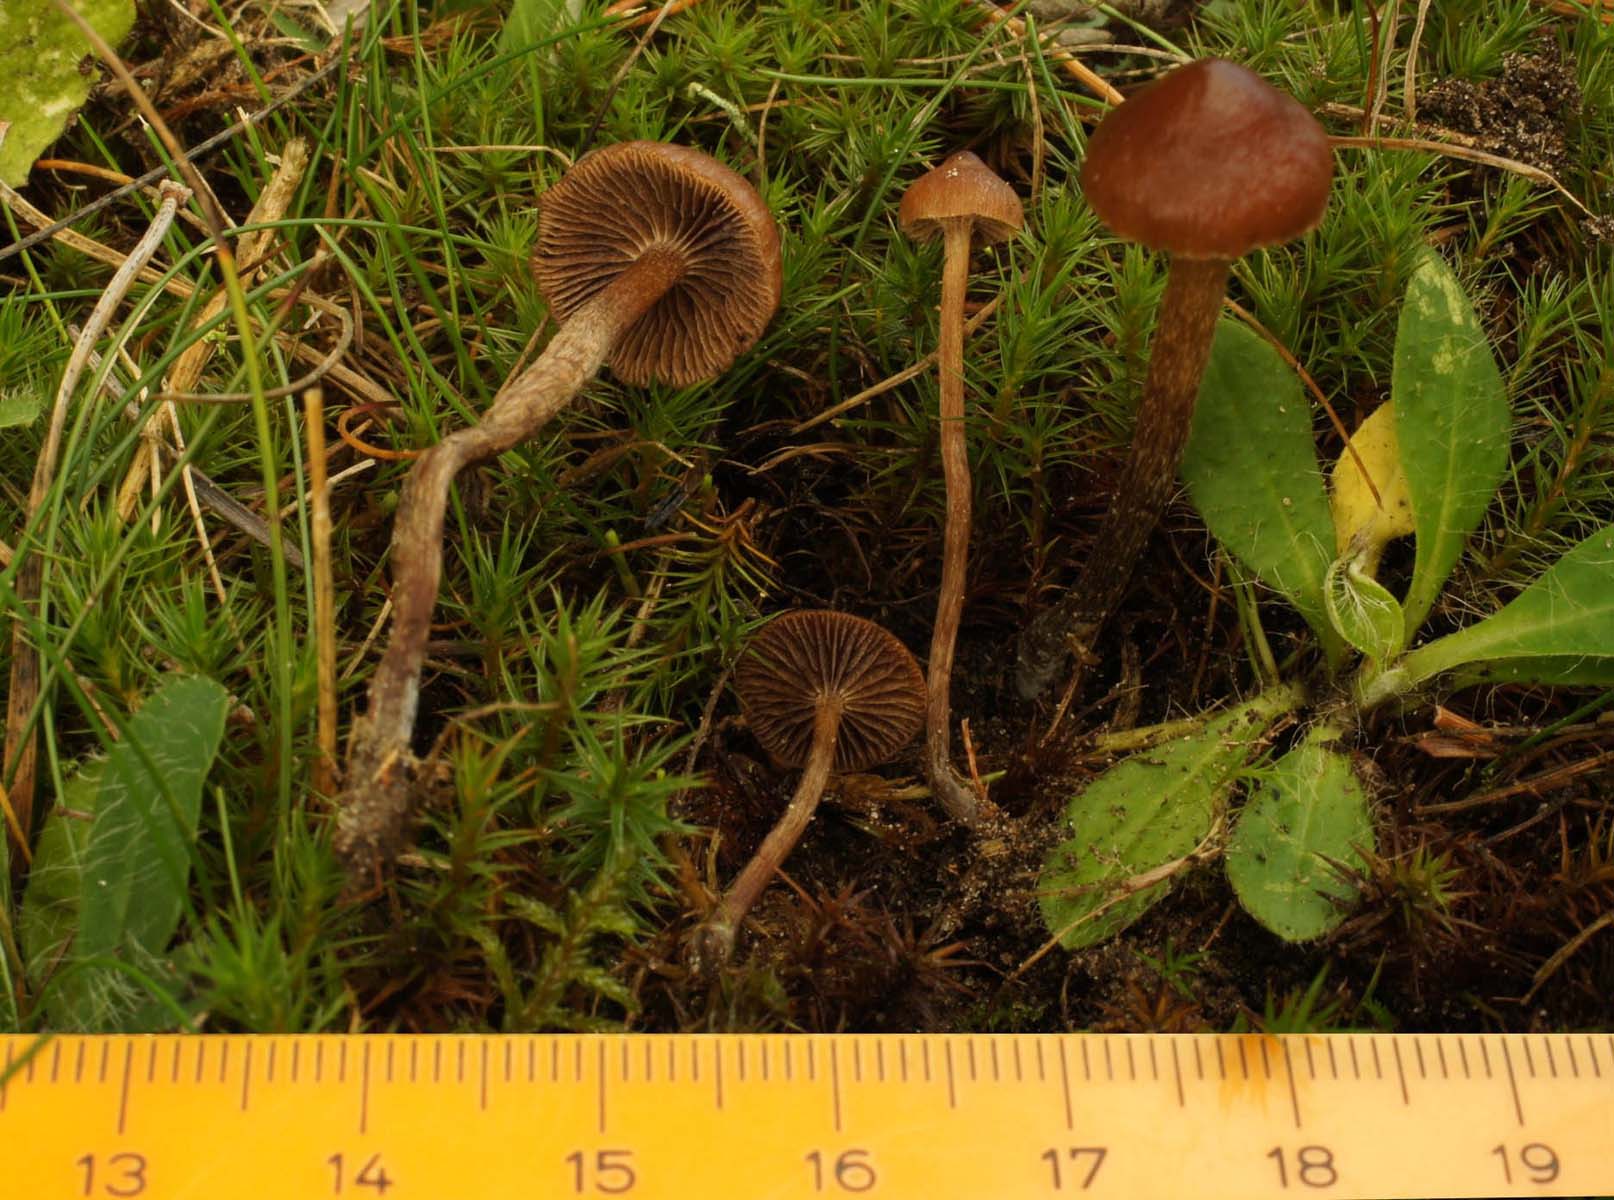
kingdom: Fungi
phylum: Basidiomycota
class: Agaricomycetes
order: Agaricales
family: Strophariaceae
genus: Deconica
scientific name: Deconica montana
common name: rødbrun stråhat
